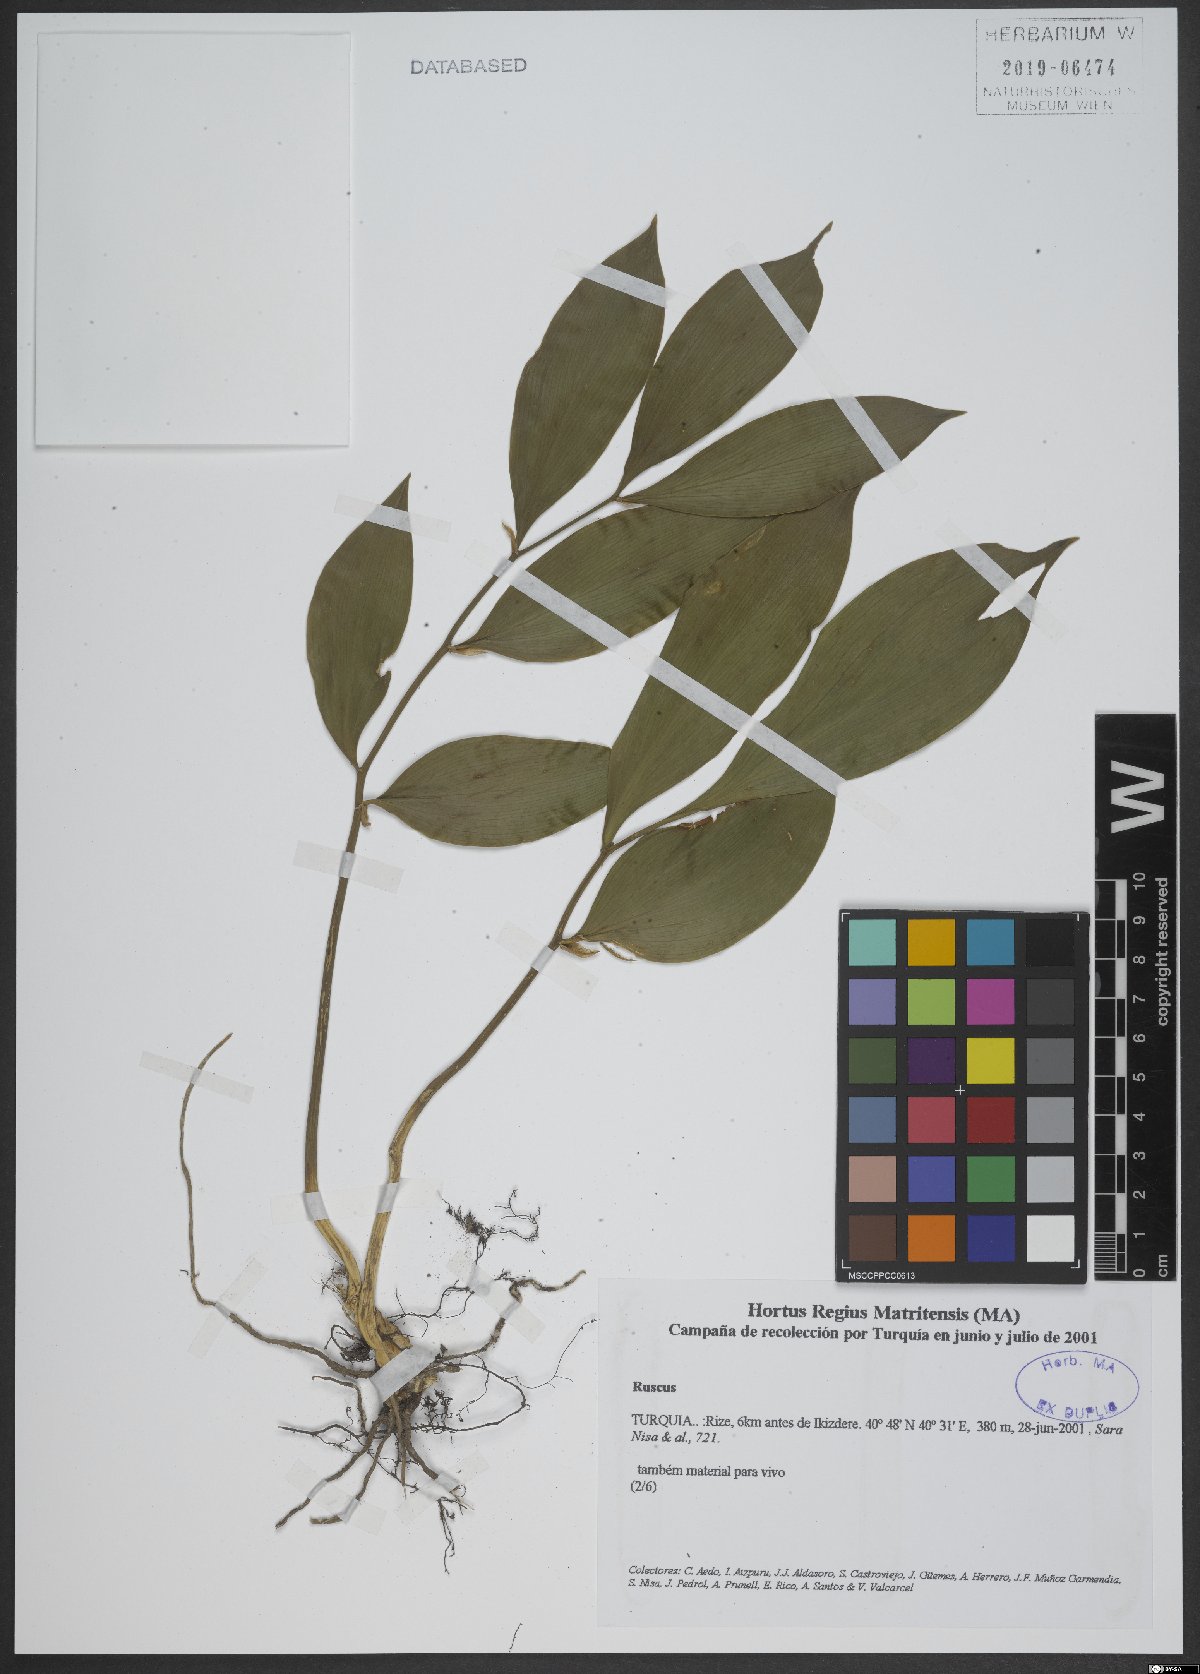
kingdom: Plantae
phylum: Tracheophyta
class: Liliopsida
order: Asparagales
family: Asparagaceae
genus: Ruscus
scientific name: Ruscus
